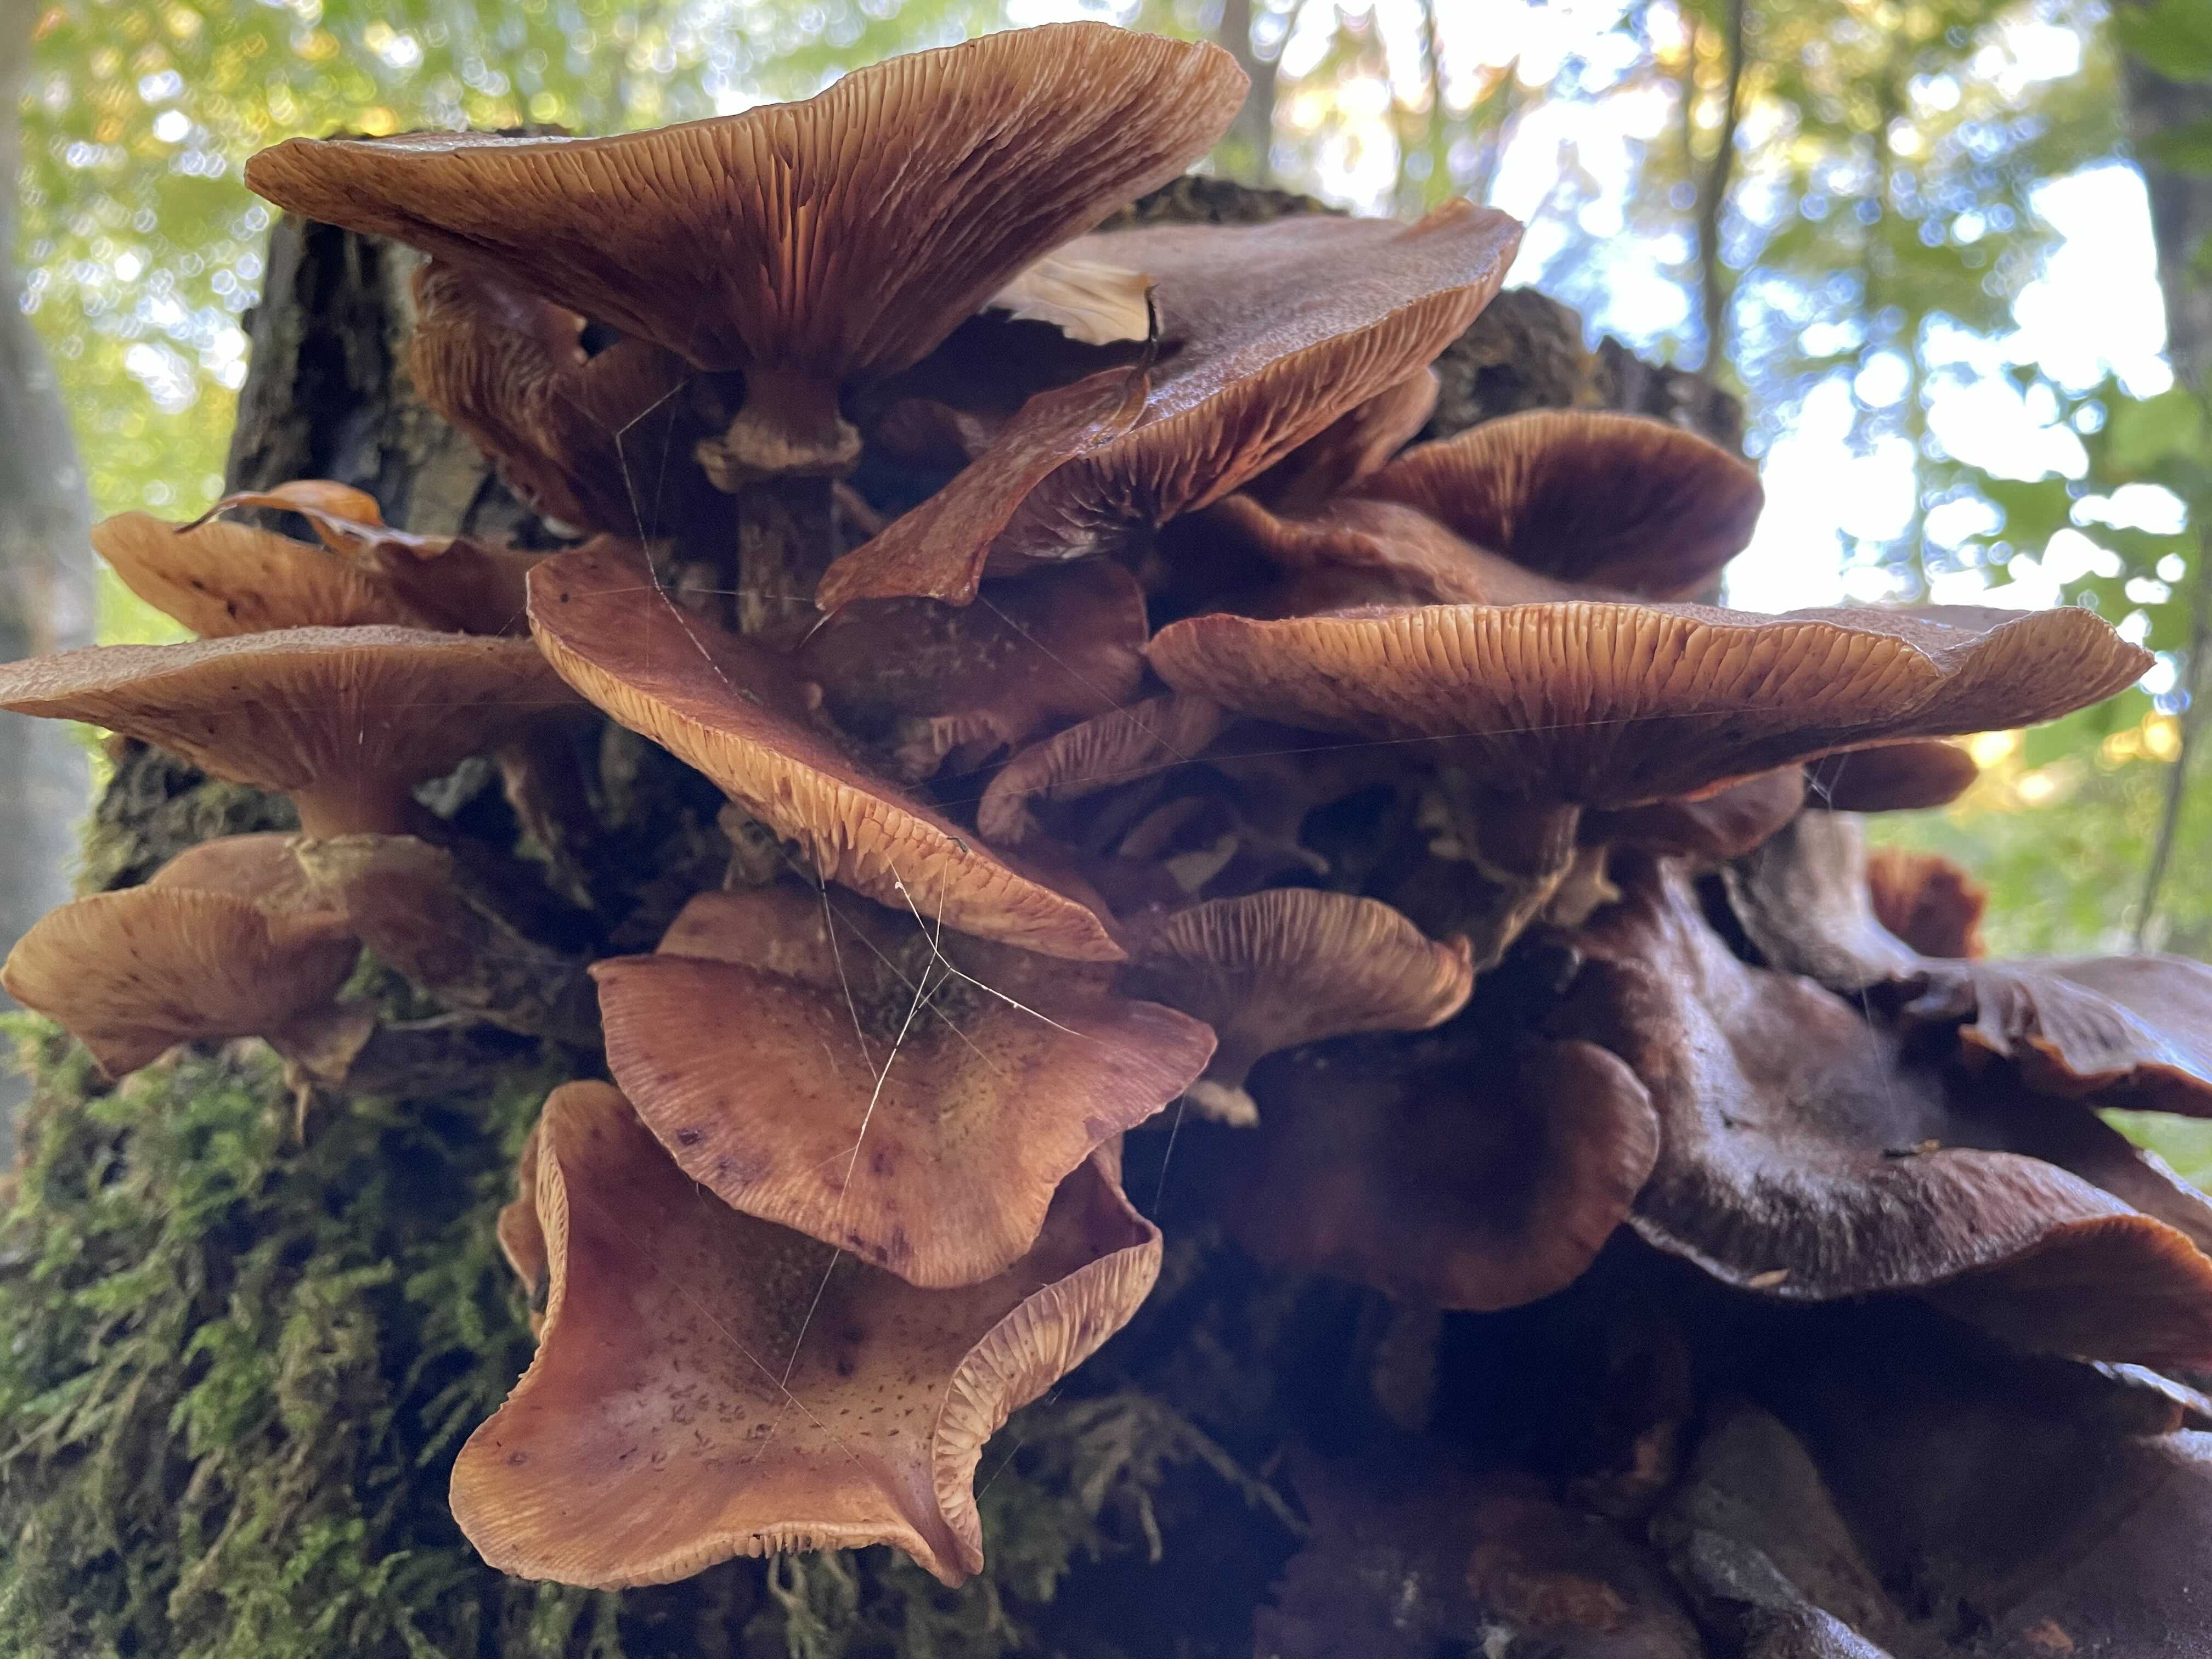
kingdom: Fungi
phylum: Basidiomycota
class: Agaricomycetes
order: Agaricales
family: Physalacriaceae
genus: Armillaria
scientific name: Armillaria mellea
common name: ægte honningsvamp
